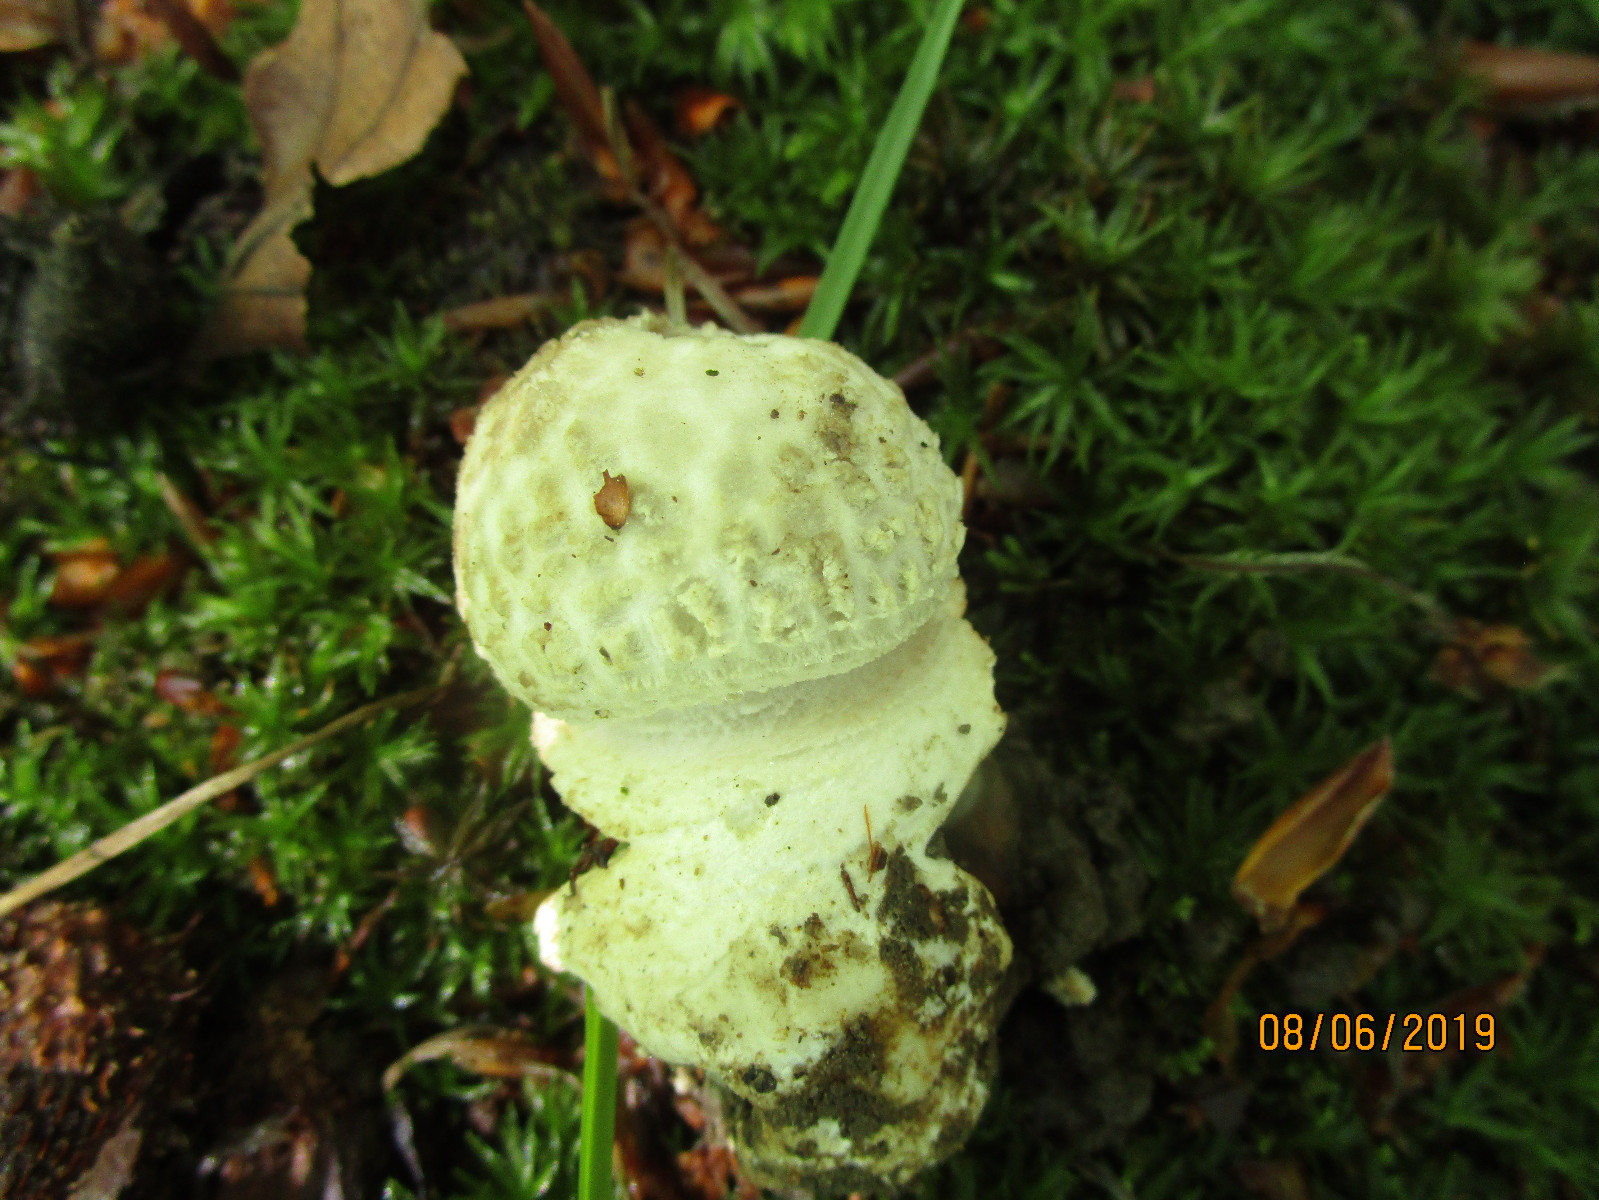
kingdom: Fungi
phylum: Basidiomycota
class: Agaricomycetes
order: Agaricales
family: Amanitaceae
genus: Amanita
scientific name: Amanita franchetii
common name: gulrandet fluesvamp
